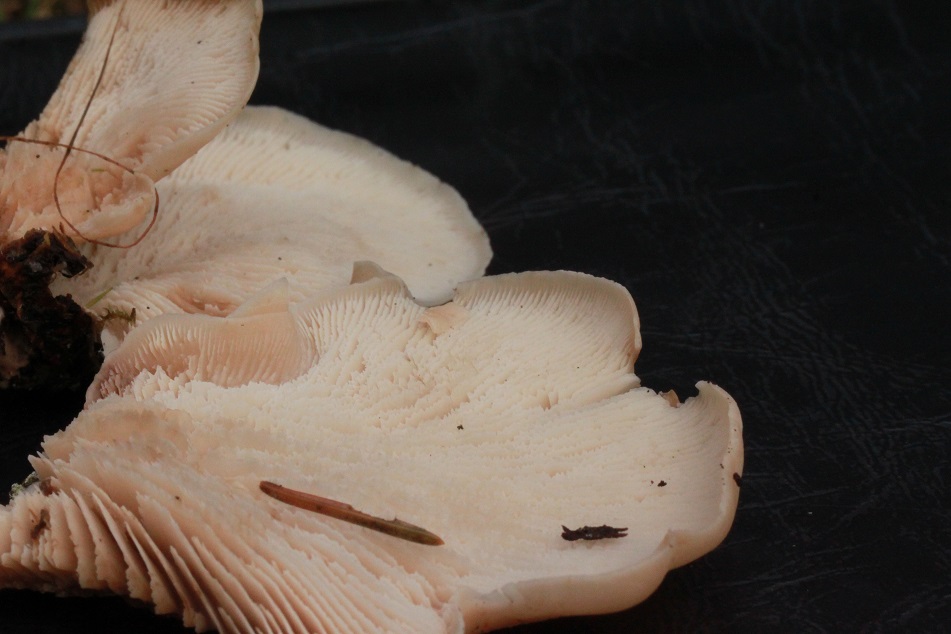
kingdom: Fungi
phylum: Basidiomycota
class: Agaricomycetes
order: Russulales
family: Auriscalpiaceae
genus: Lentinellus
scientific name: Lentinellus vulpinus
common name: randribbet savbladhat
